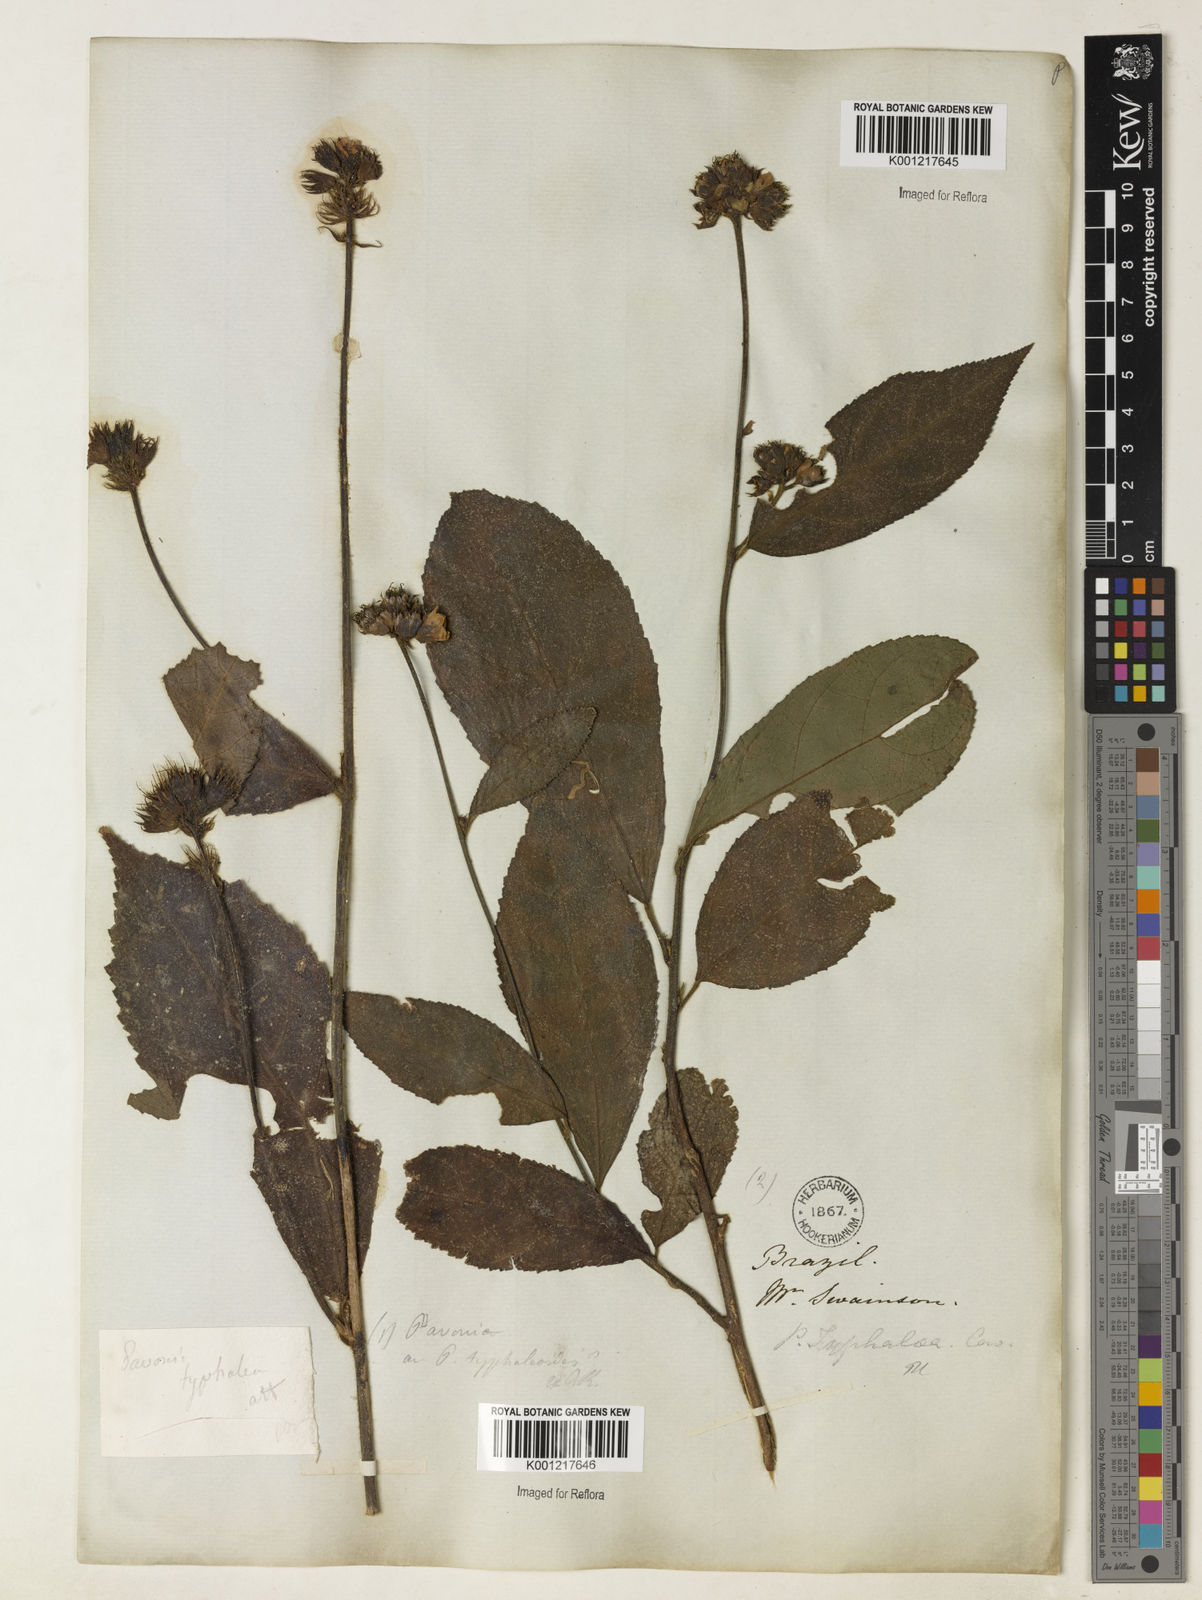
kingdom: Plantae
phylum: Tracheophyta
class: Magnoliopsida
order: Malvales
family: Malvaceae
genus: Pavonia
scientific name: Pavonia castaneifolia
